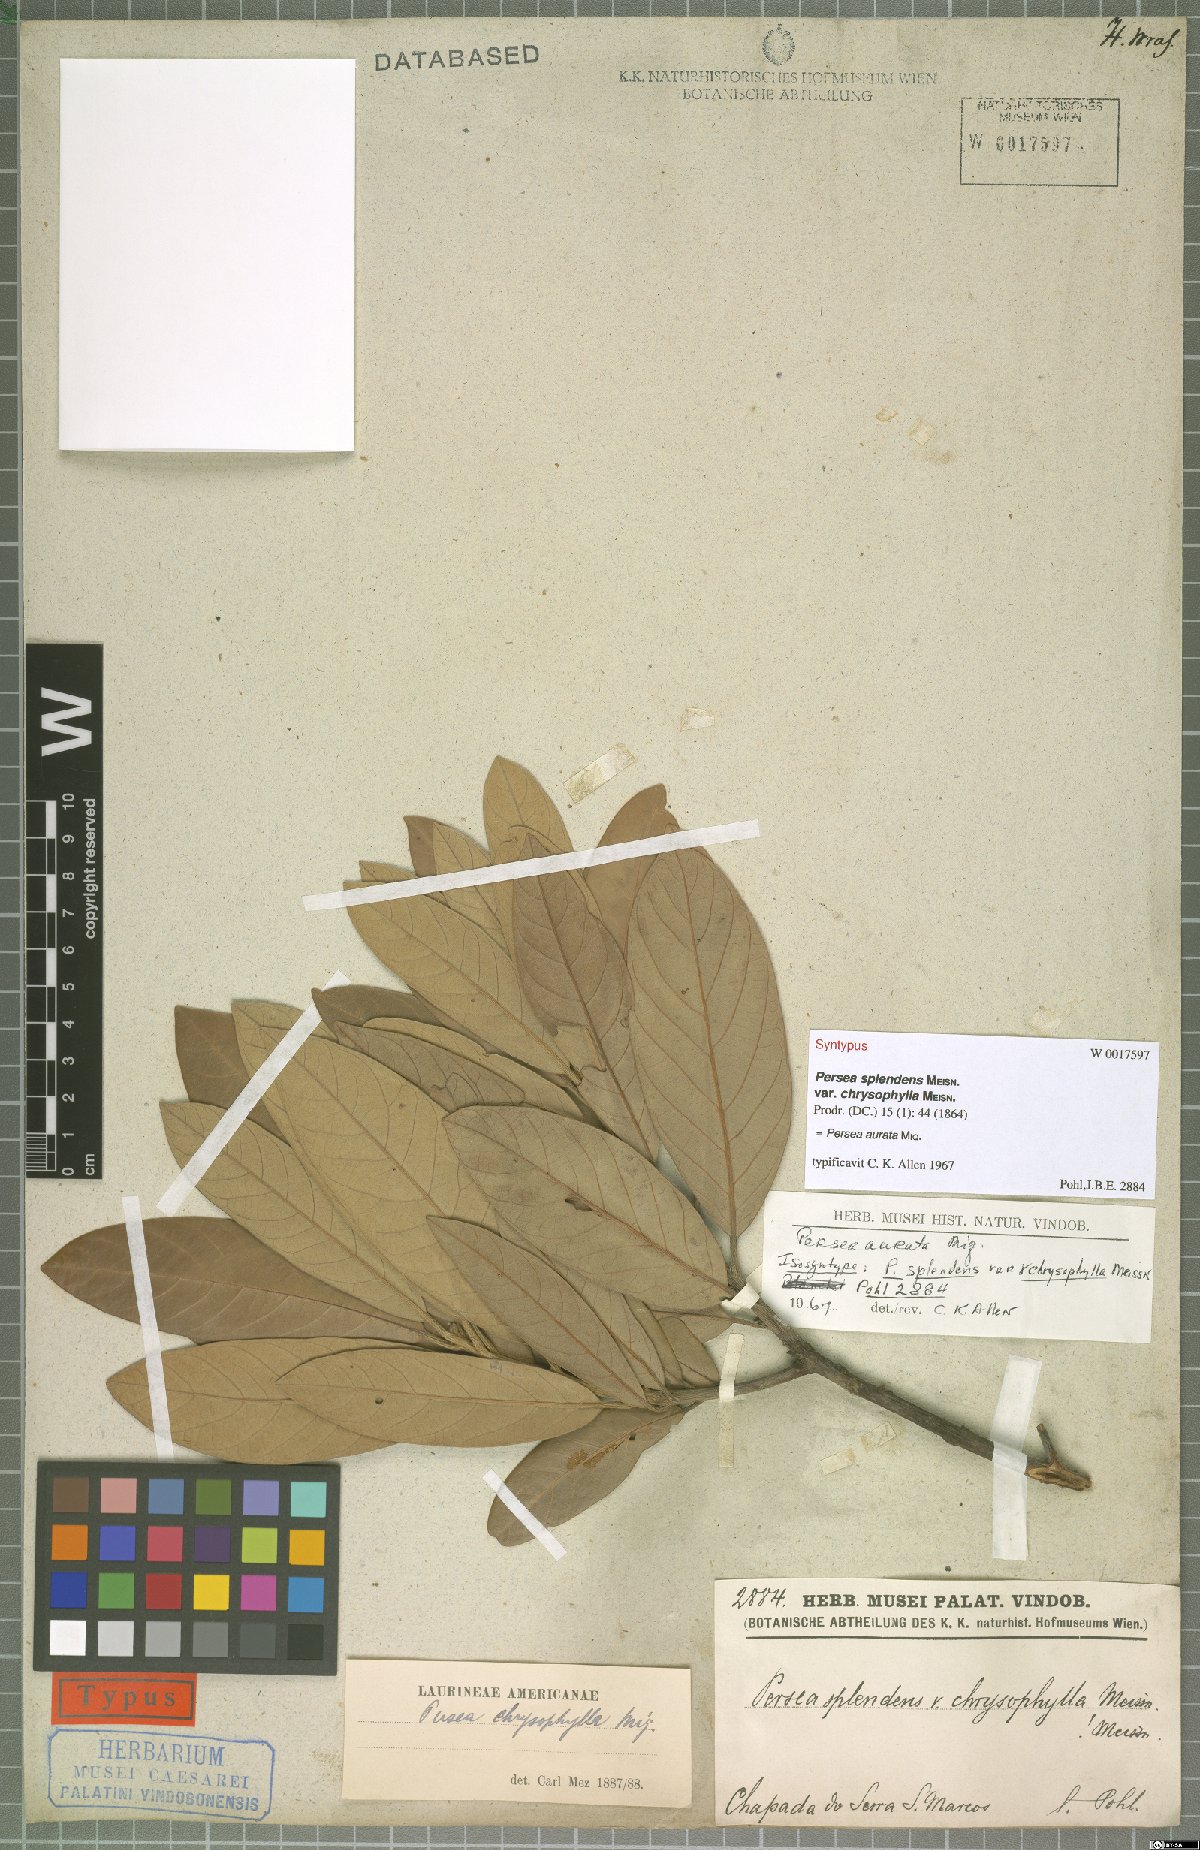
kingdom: Plantae
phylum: Tracheophyta
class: Magnoliopsida
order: Laurales
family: Lauraceae
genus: Persea
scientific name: Persea aurata
